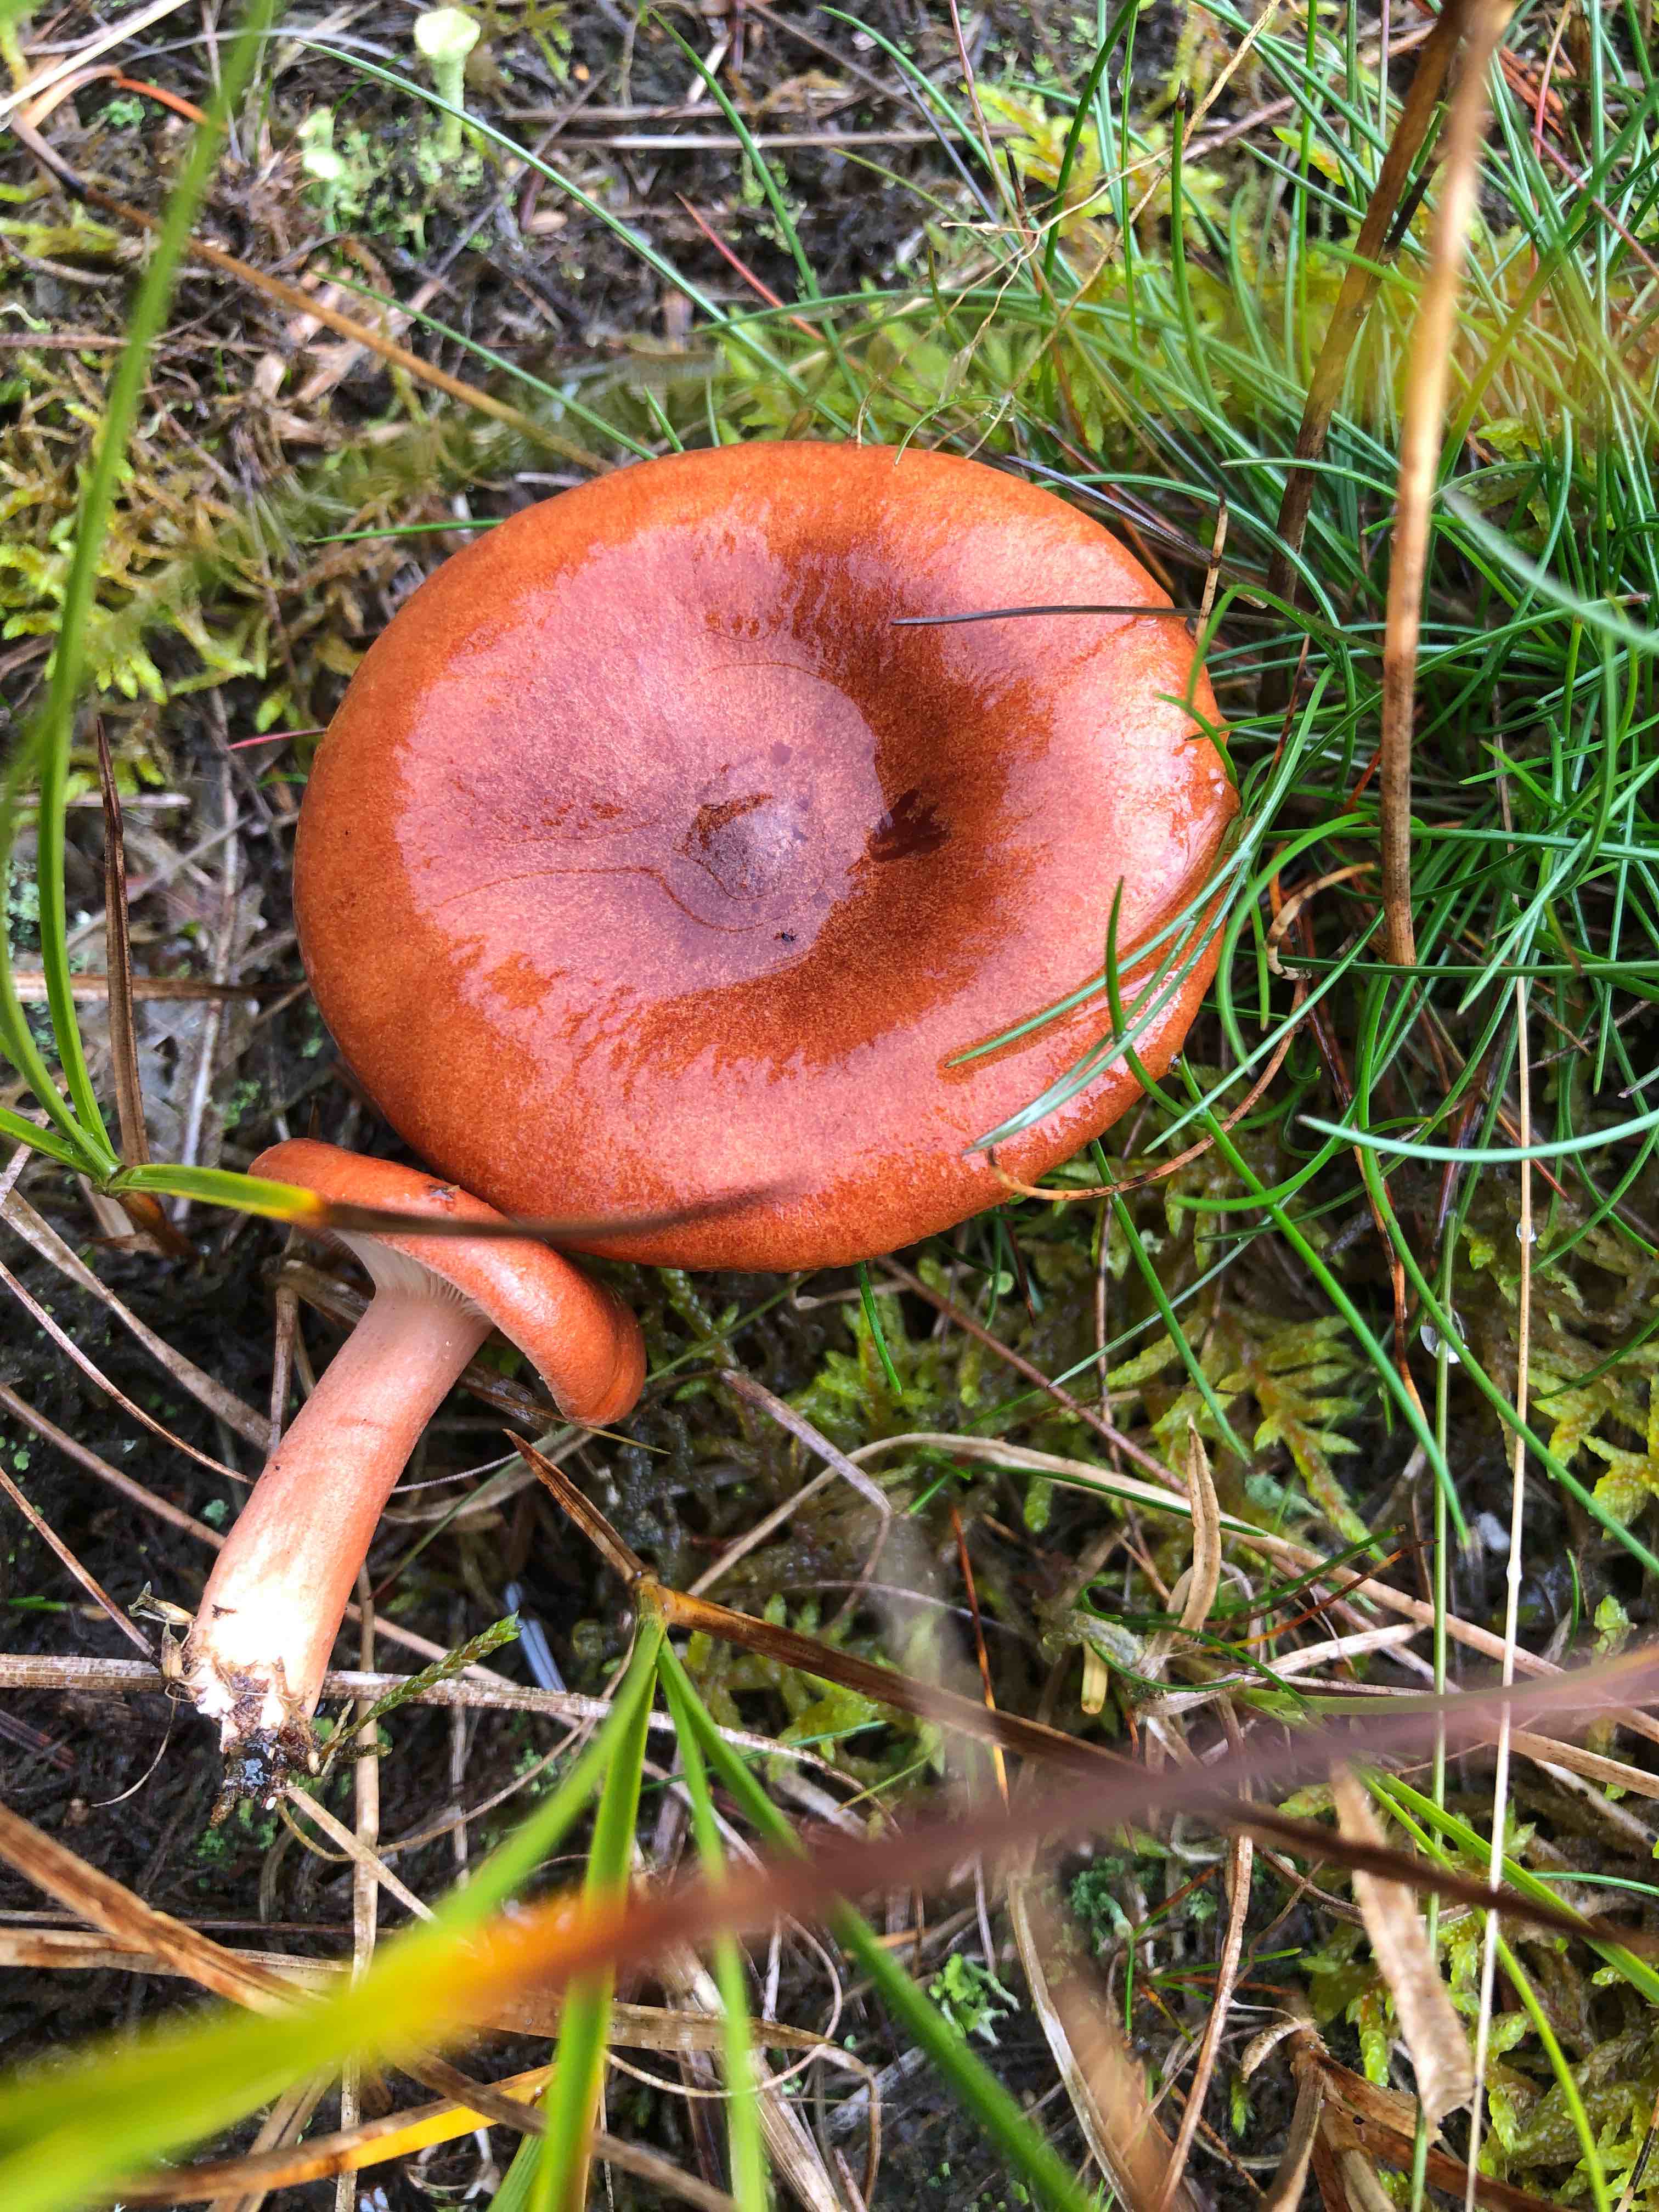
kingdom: Fungi
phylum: Basidiomycota
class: Agaricomycetes
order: Russulales
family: Russulaceae
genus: Lactarius
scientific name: Lactarius rufus
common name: rødbrun mælkehat
